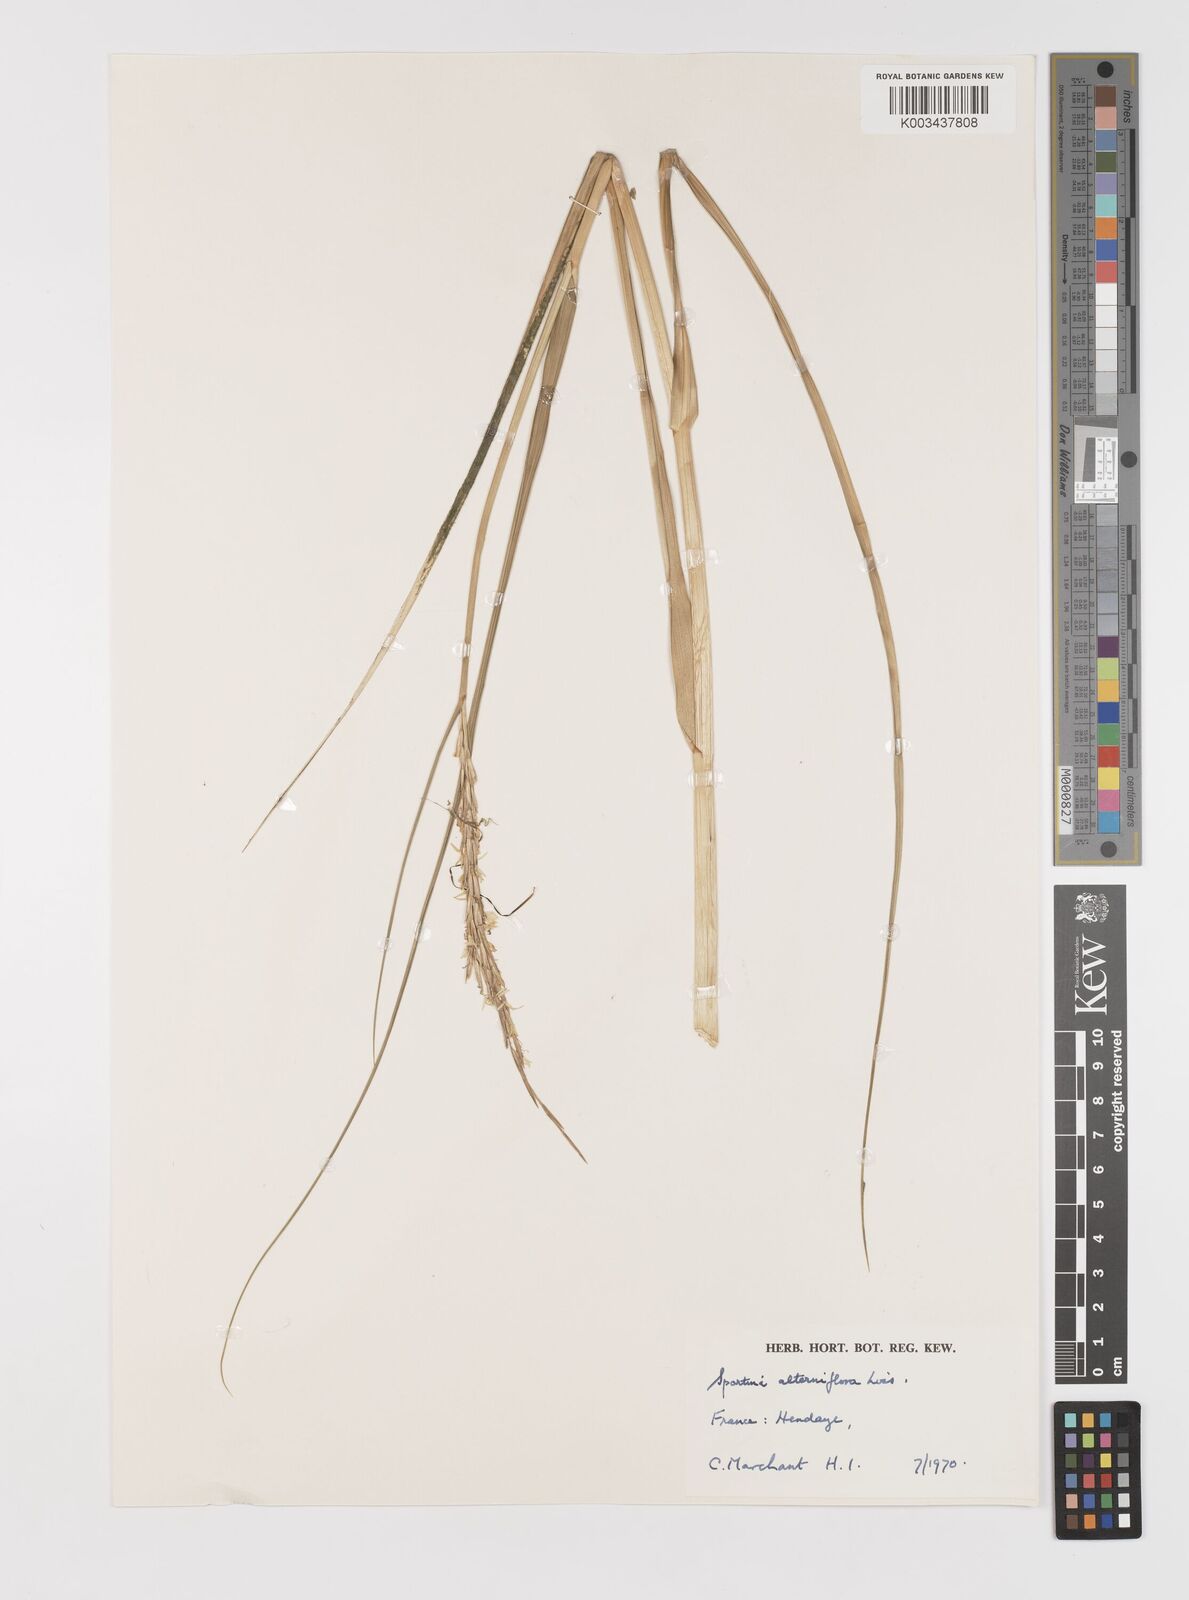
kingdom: Plantae
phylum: Tracheophyta
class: Liliopsida
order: Poales
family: Poaceae
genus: Sporobolus
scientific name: Sporobolus alterniflorus
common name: Atlantic cordgrass
